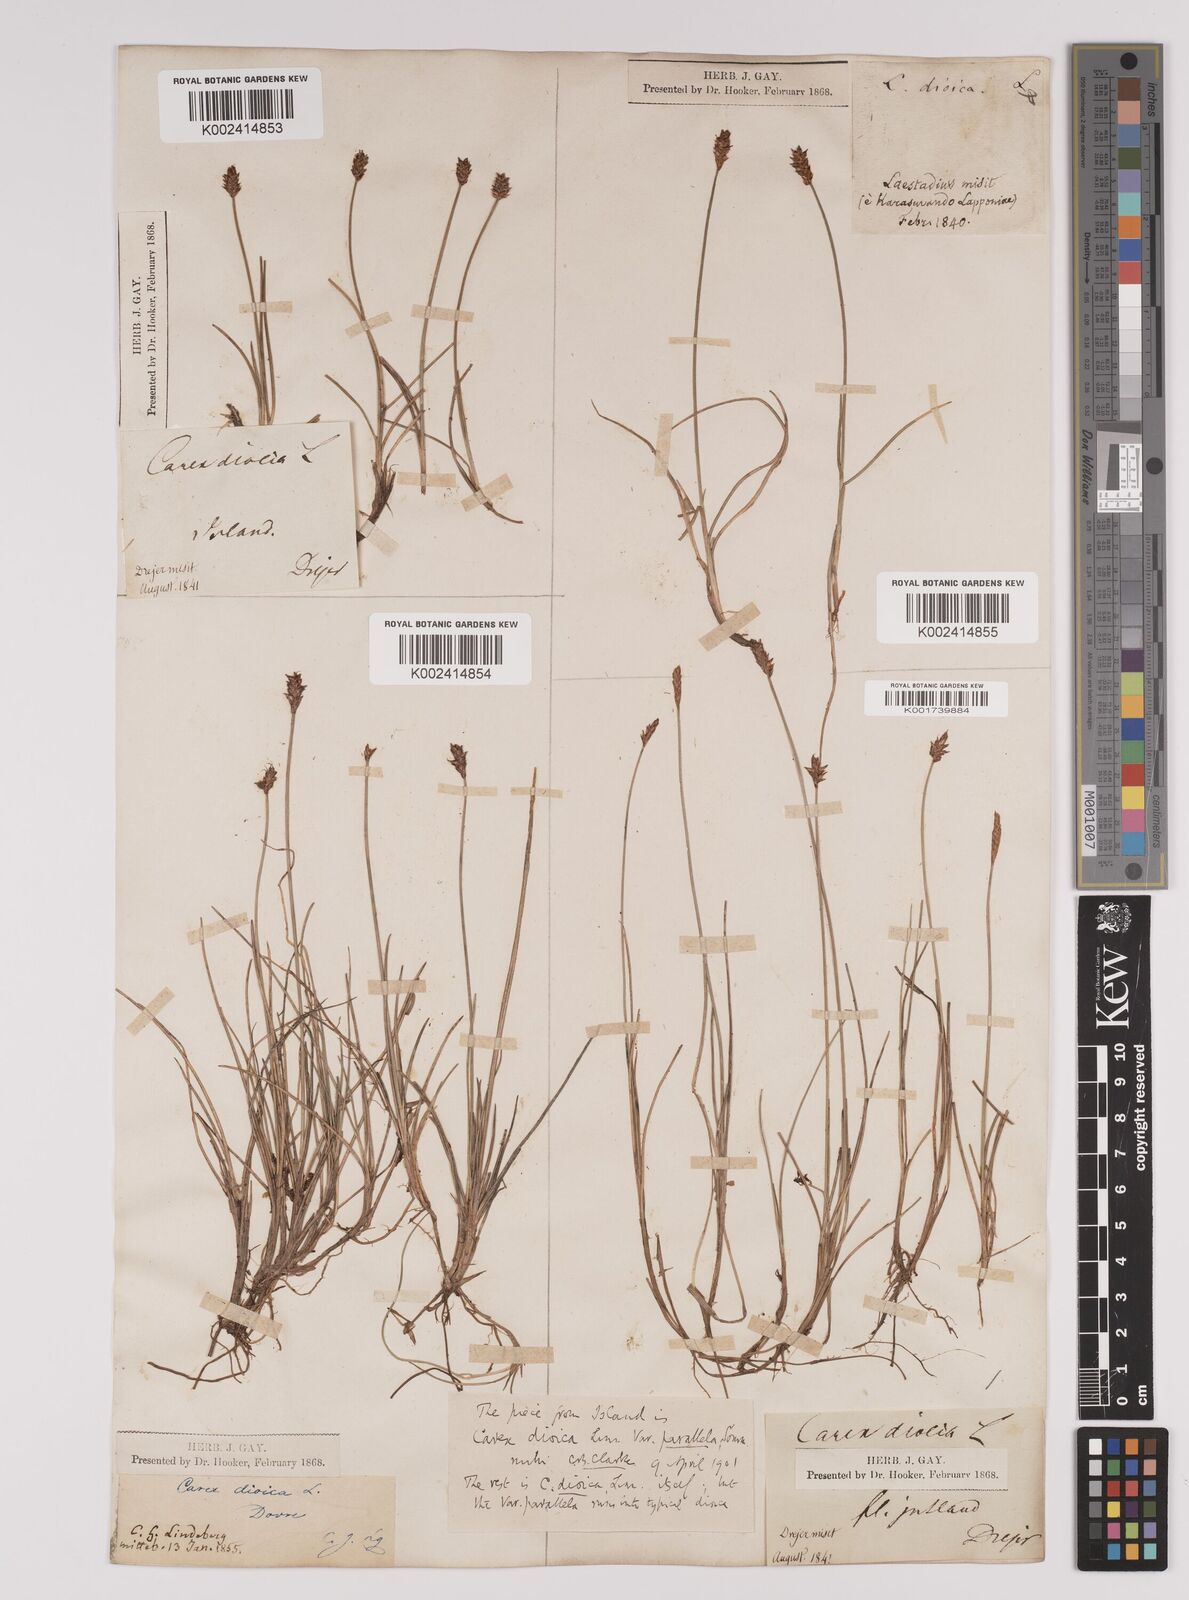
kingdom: Plantae
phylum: Tracheophyta
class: Liliopsida
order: Poales
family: Cyperaceae
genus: Carex
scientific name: Carex dioica
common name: Dioecious sedge
